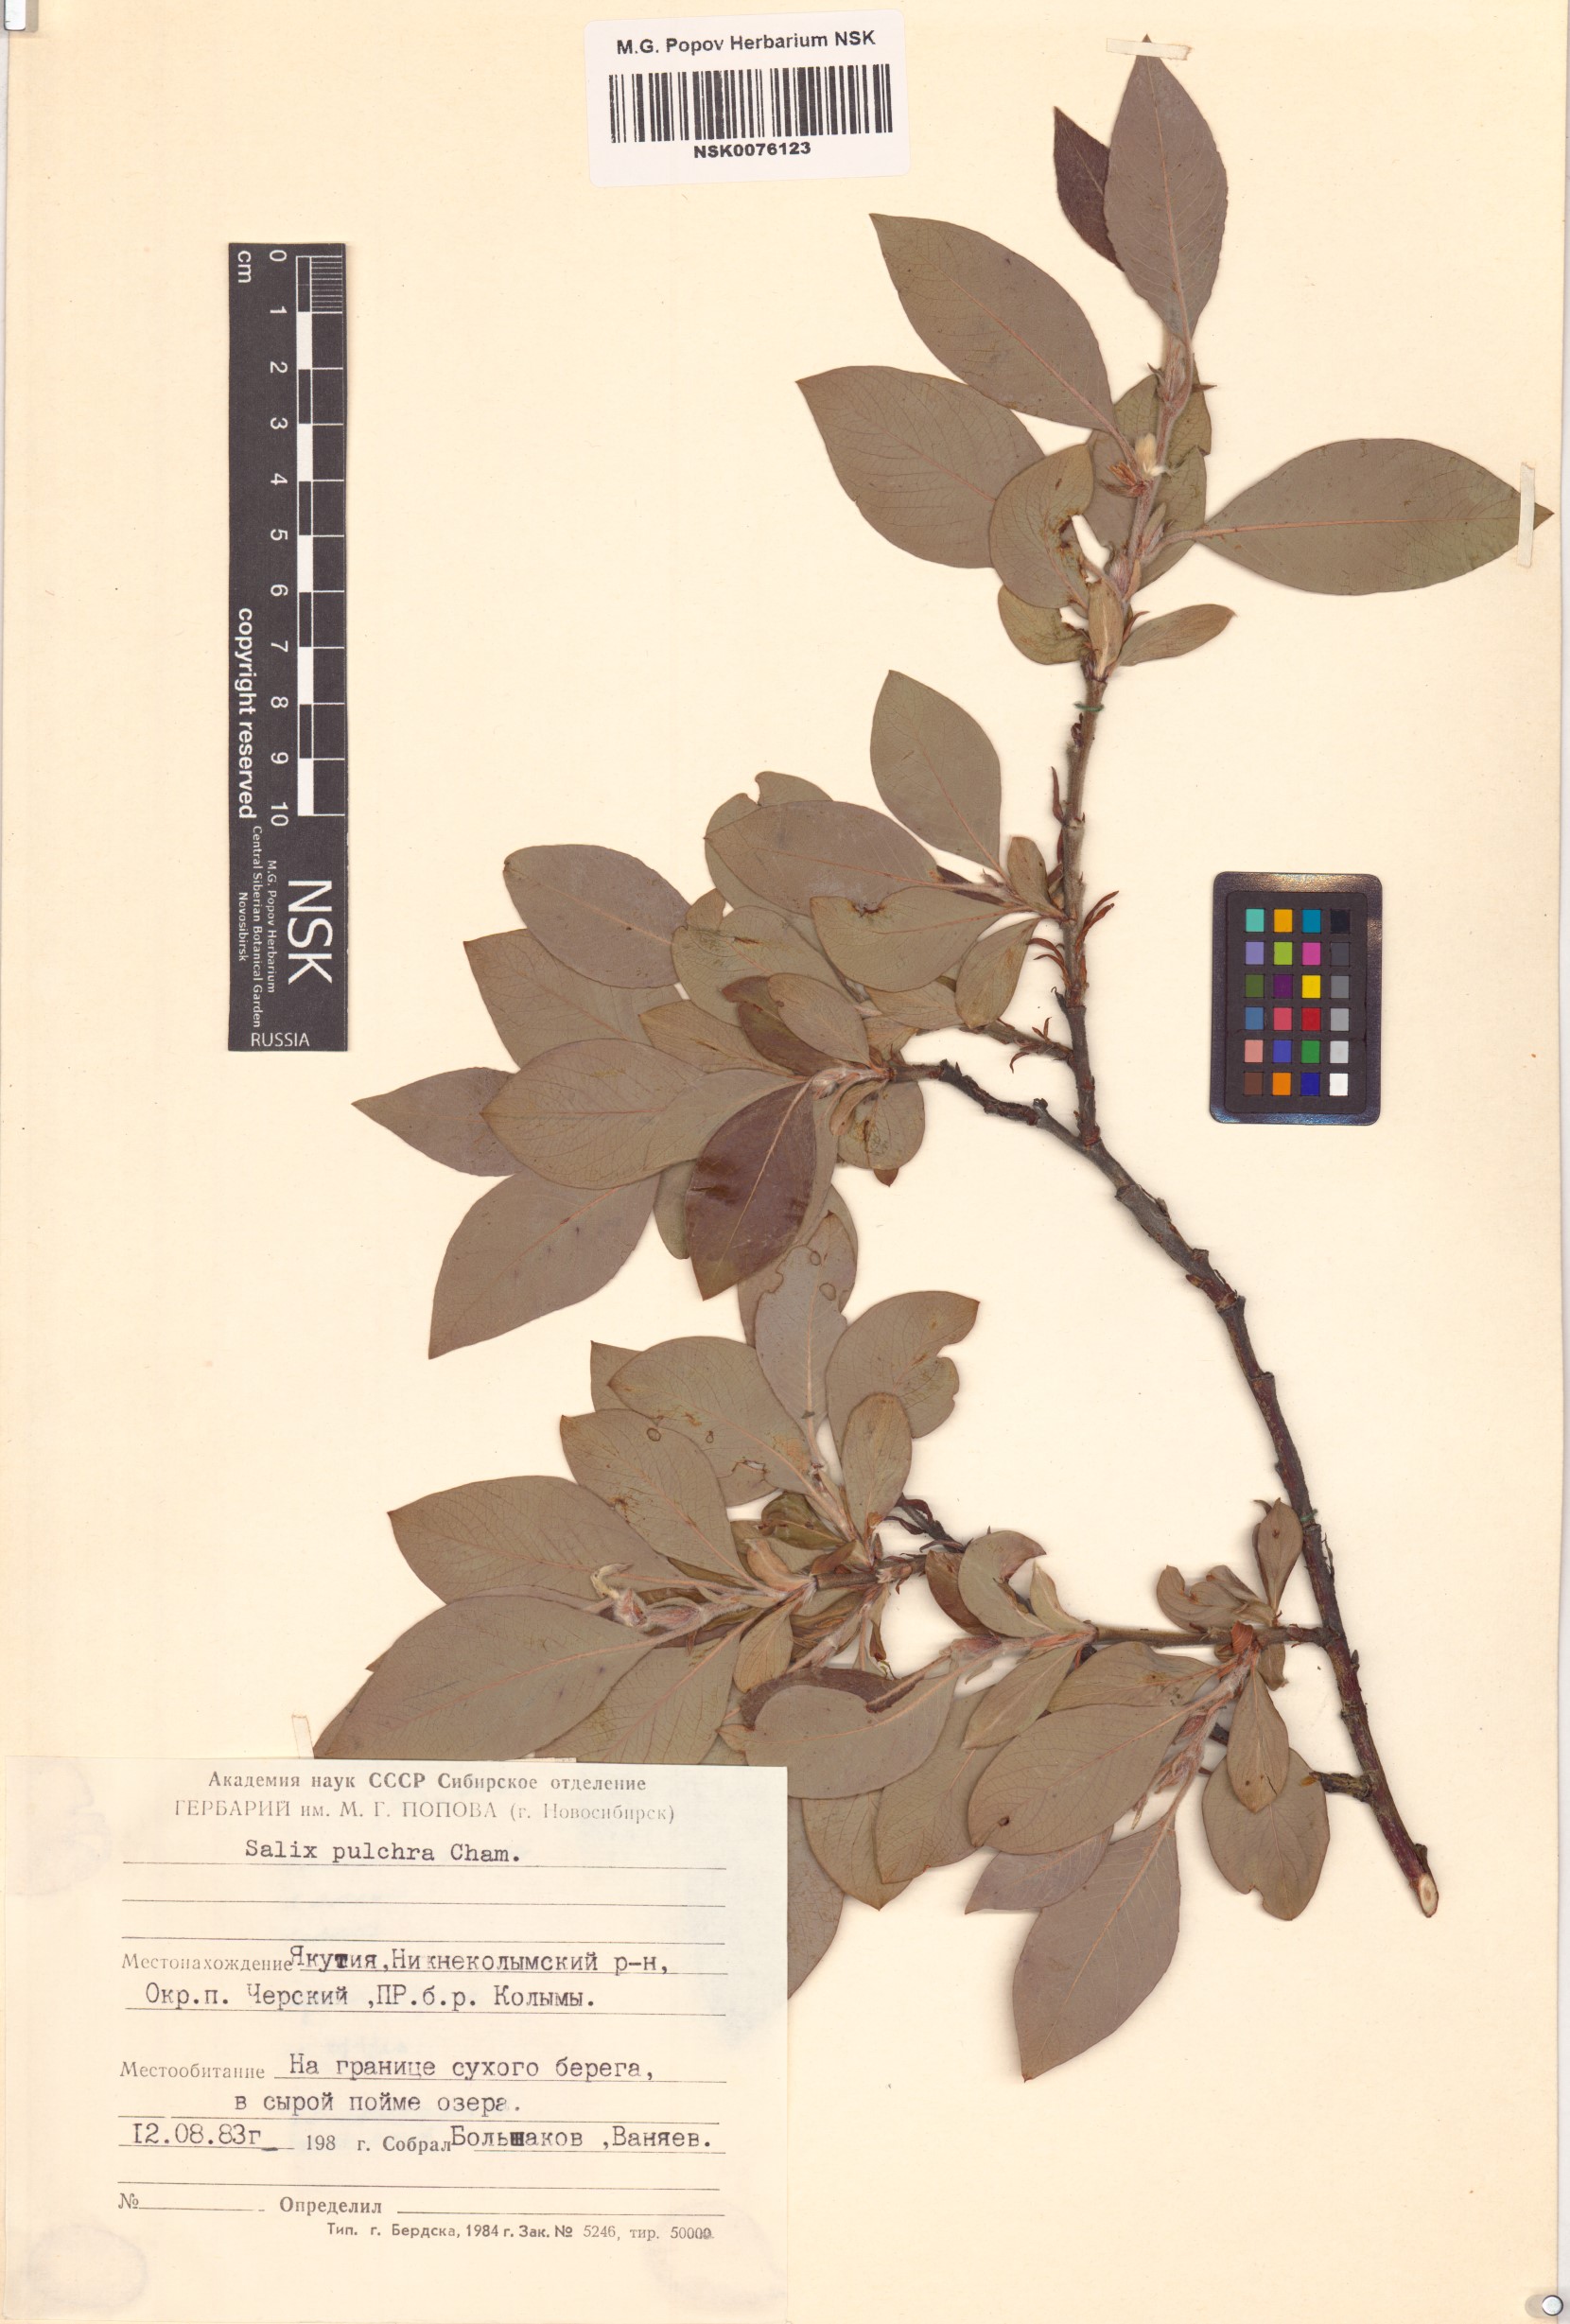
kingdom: Plantae
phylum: Tracheophyta
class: Magnoliopsida
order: Malpighiales
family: Salicaceae
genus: Salix
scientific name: Salix pulchra
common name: Diamond-leaved willow
